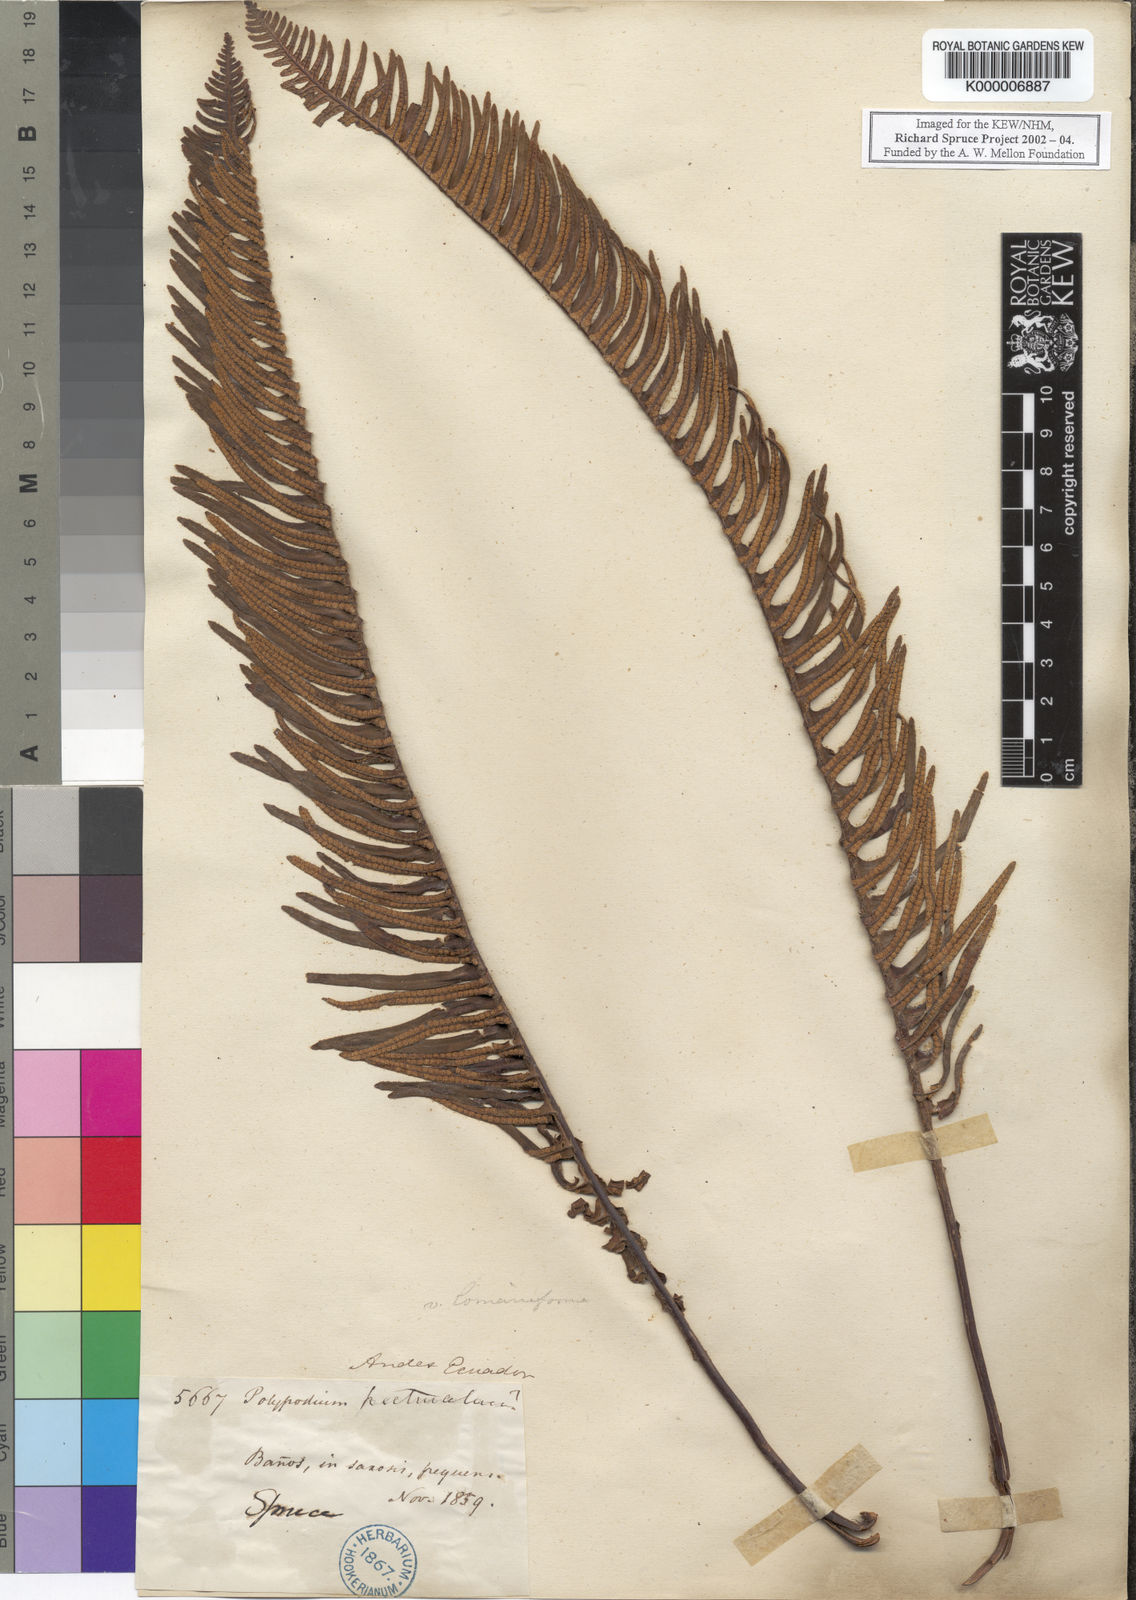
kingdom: Plantae
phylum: Tracheophyta
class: Polypodiopsida
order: Polypodiales
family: Polypodiaceae
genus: Pecluma
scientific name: Pecluma camptophyllaria
